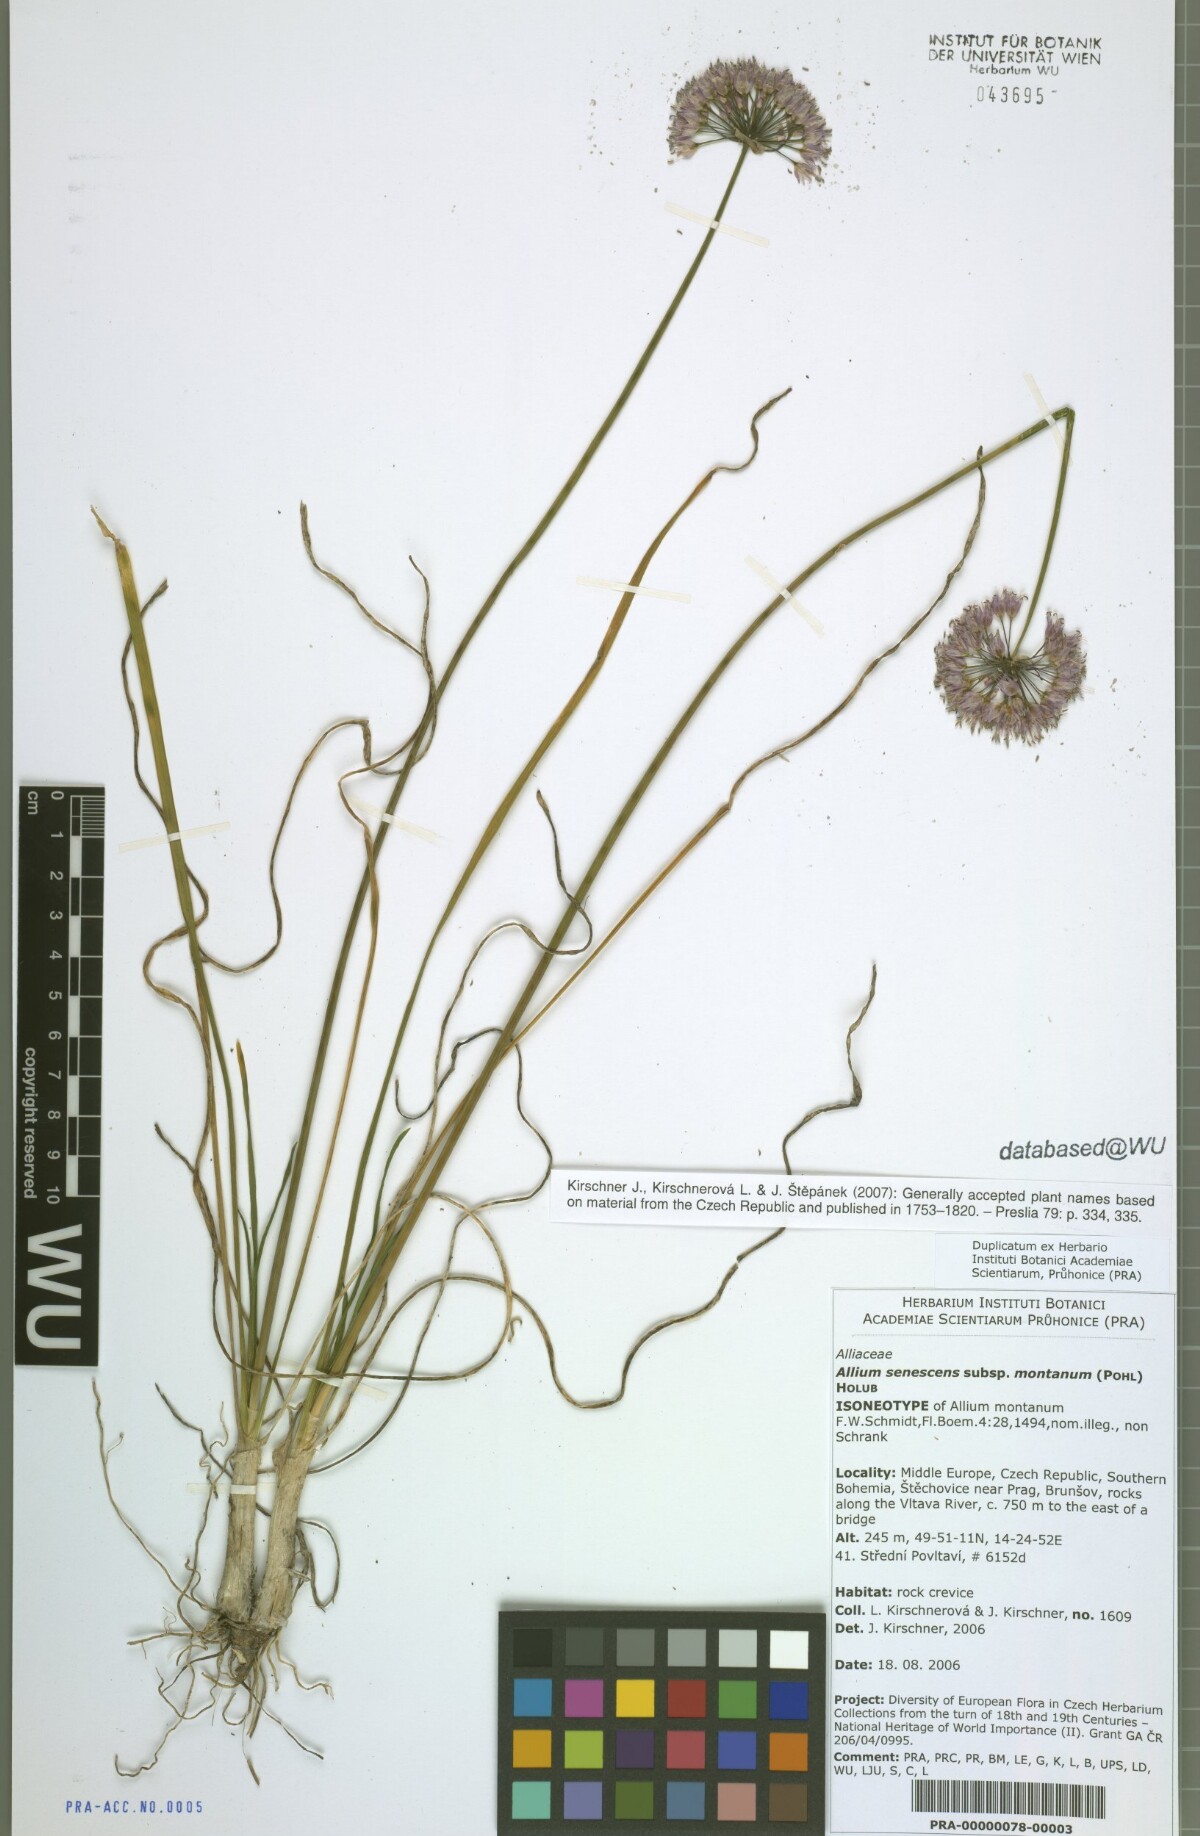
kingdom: Plantae
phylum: Tracheophyta
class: Liliopsida
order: Asparagales
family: Amaryllidaceae
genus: Allium
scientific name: Allium lusitanicum
